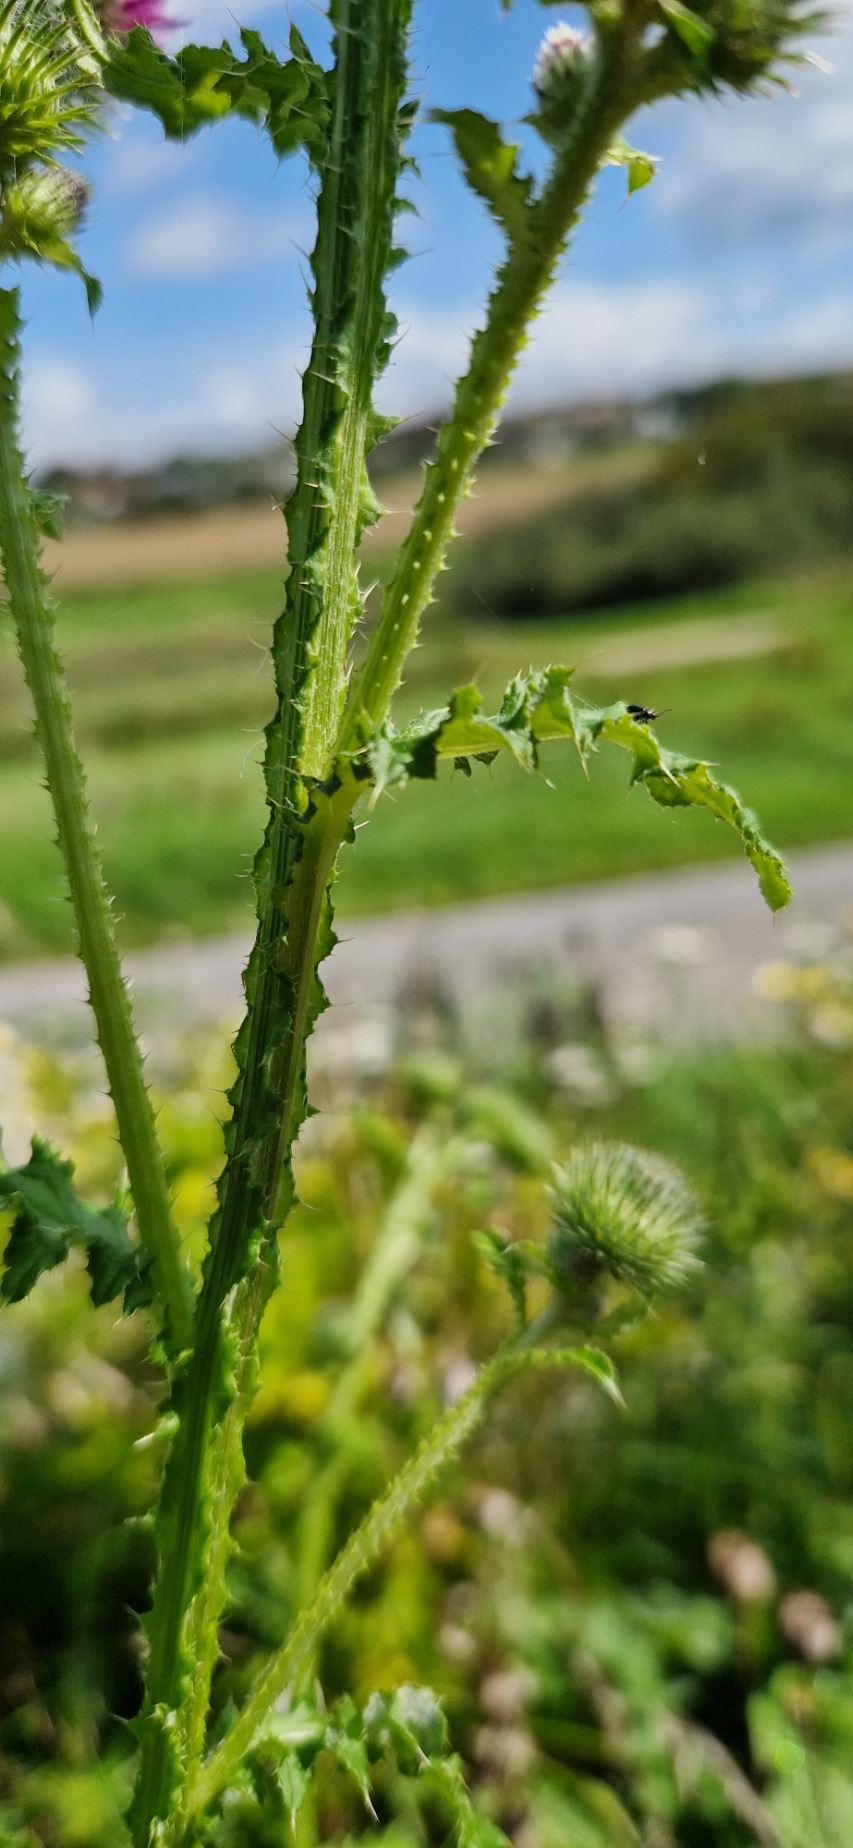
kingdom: Plantae
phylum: Tracheophyta
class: Magnoliopsida
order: Asterales
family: Asteraceae
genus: Carduus
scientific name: Carduus crispus
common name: Kruset tidsel
